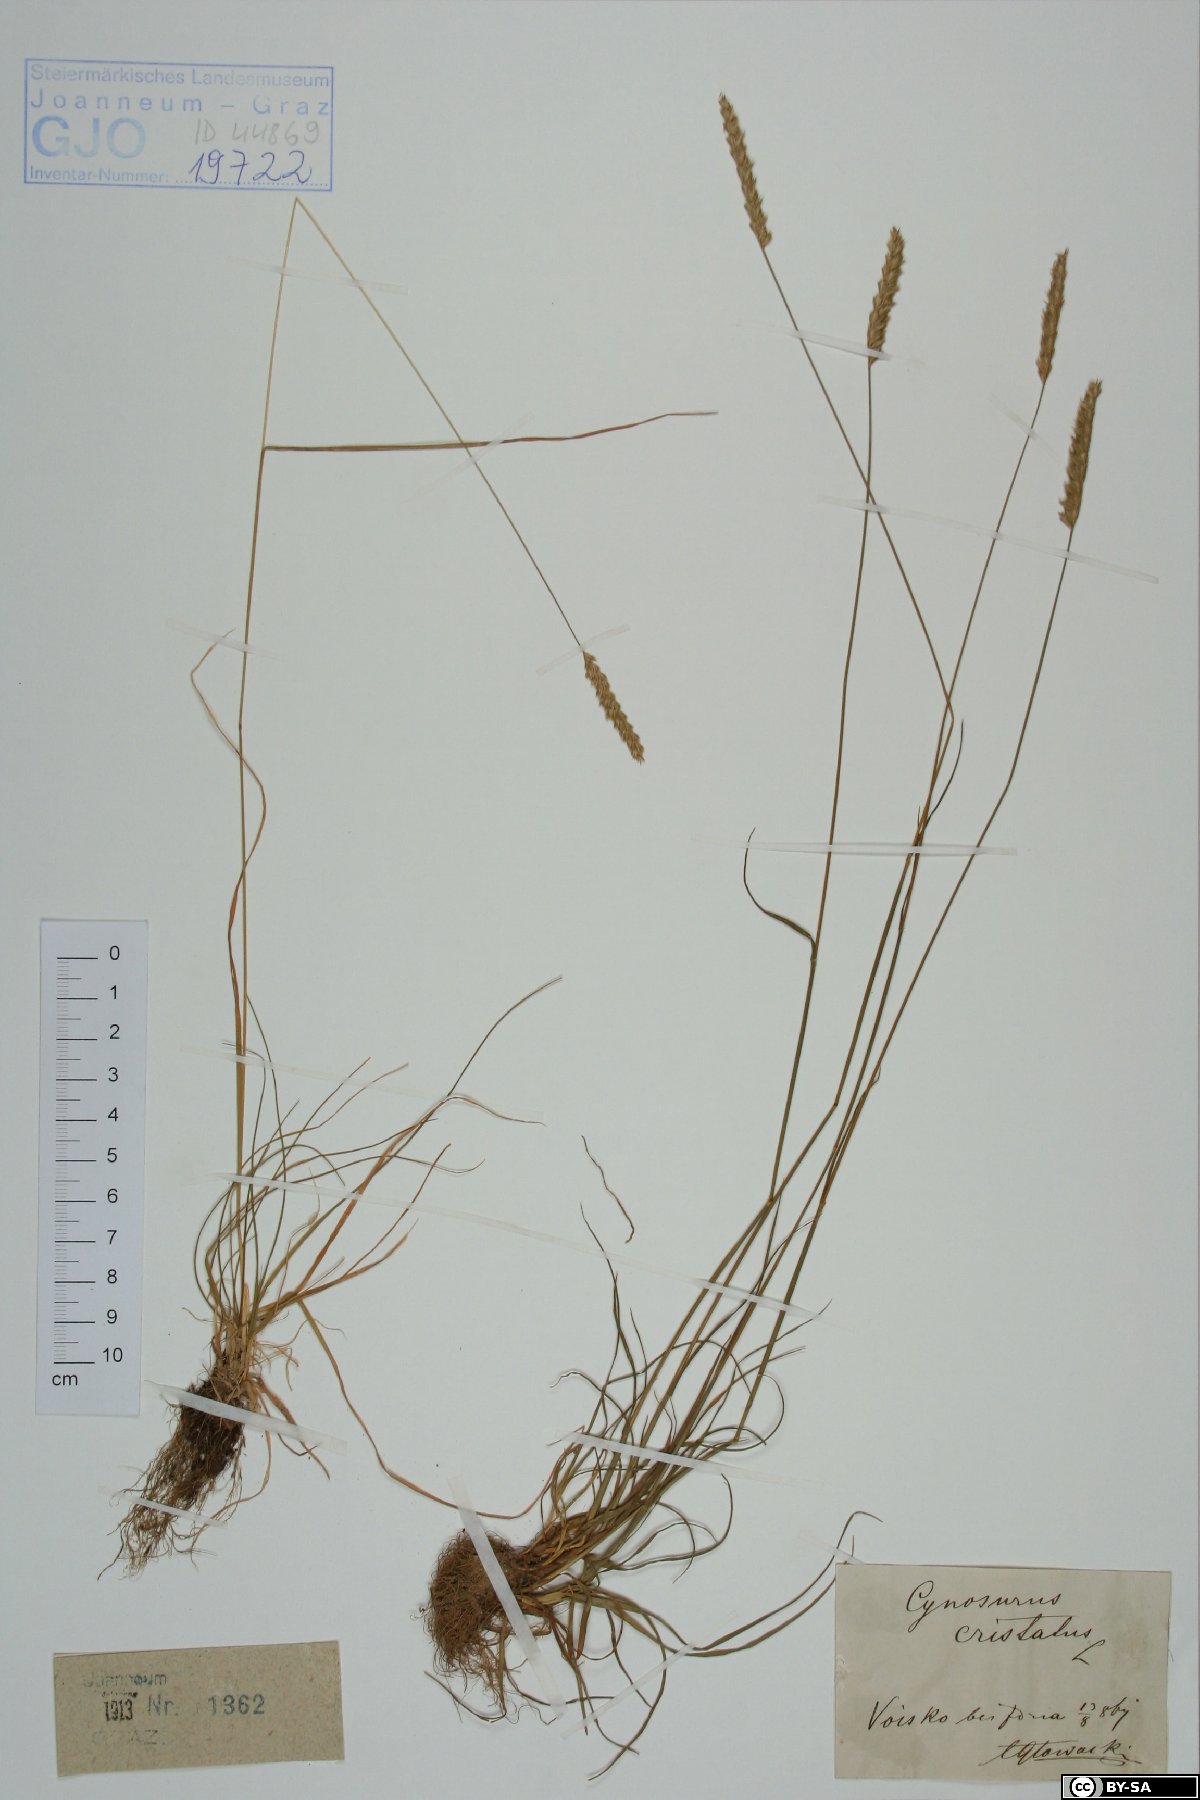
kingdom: Plantae
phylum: Tracheophyta
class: Liliopsida
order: Poales
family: Poaceae
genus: Cynosurus
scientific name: Cynosurus cristatus
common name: Crested dog's-tail
